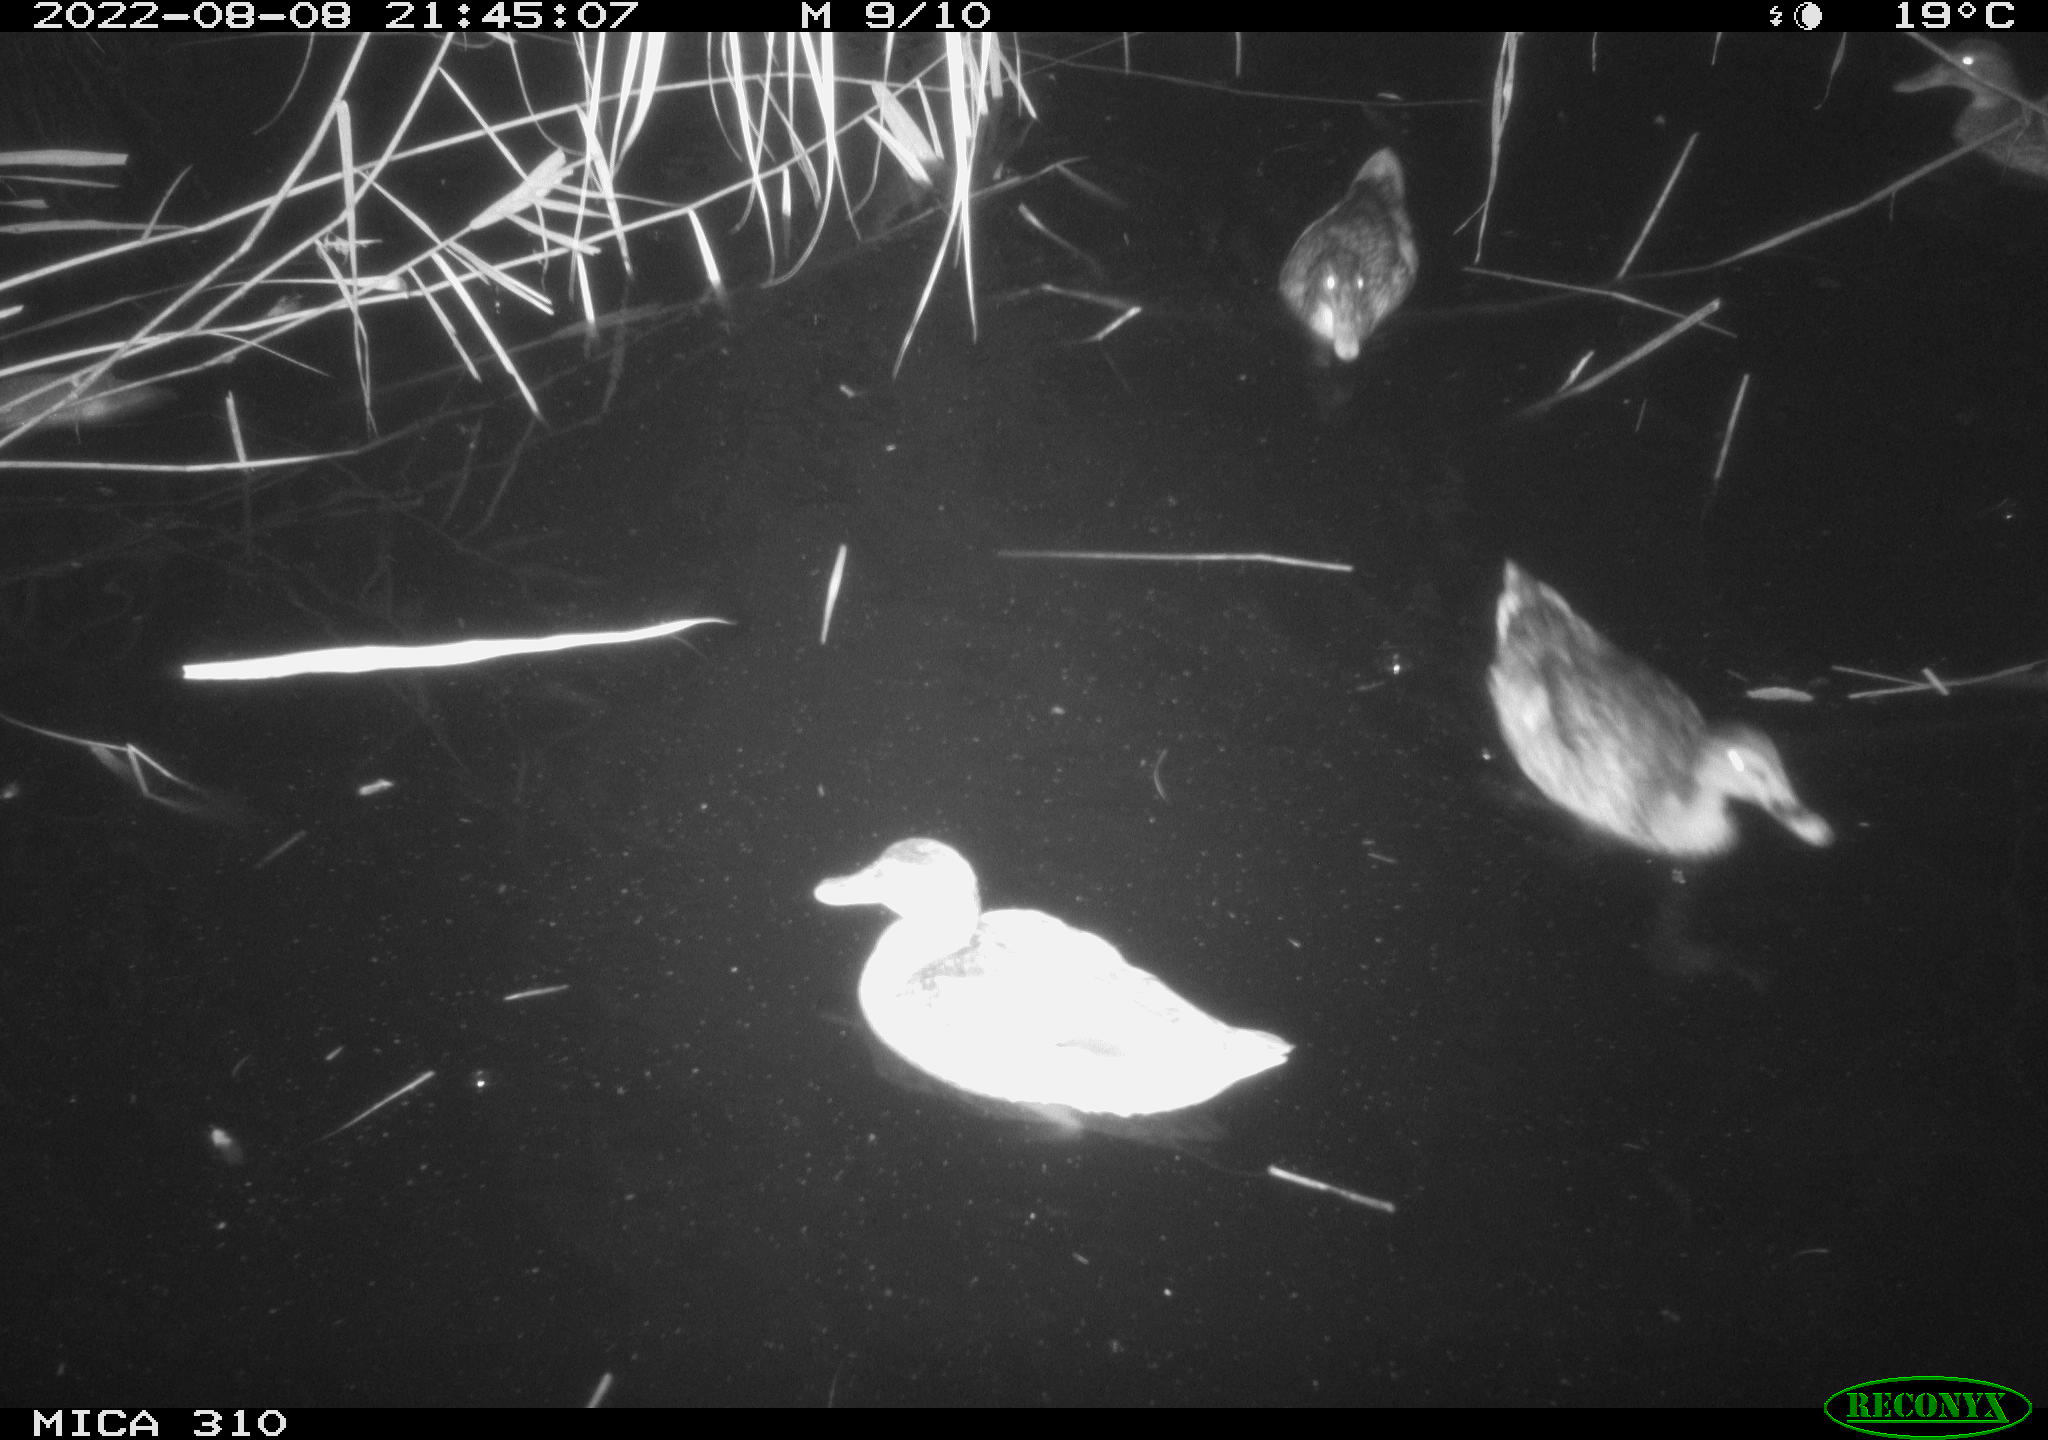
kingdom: Animalia
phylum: Chordata
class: Aves
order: Anseriformes
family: Anatidae
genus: Mareca
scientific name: Mareca strepera
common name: Gadwall
